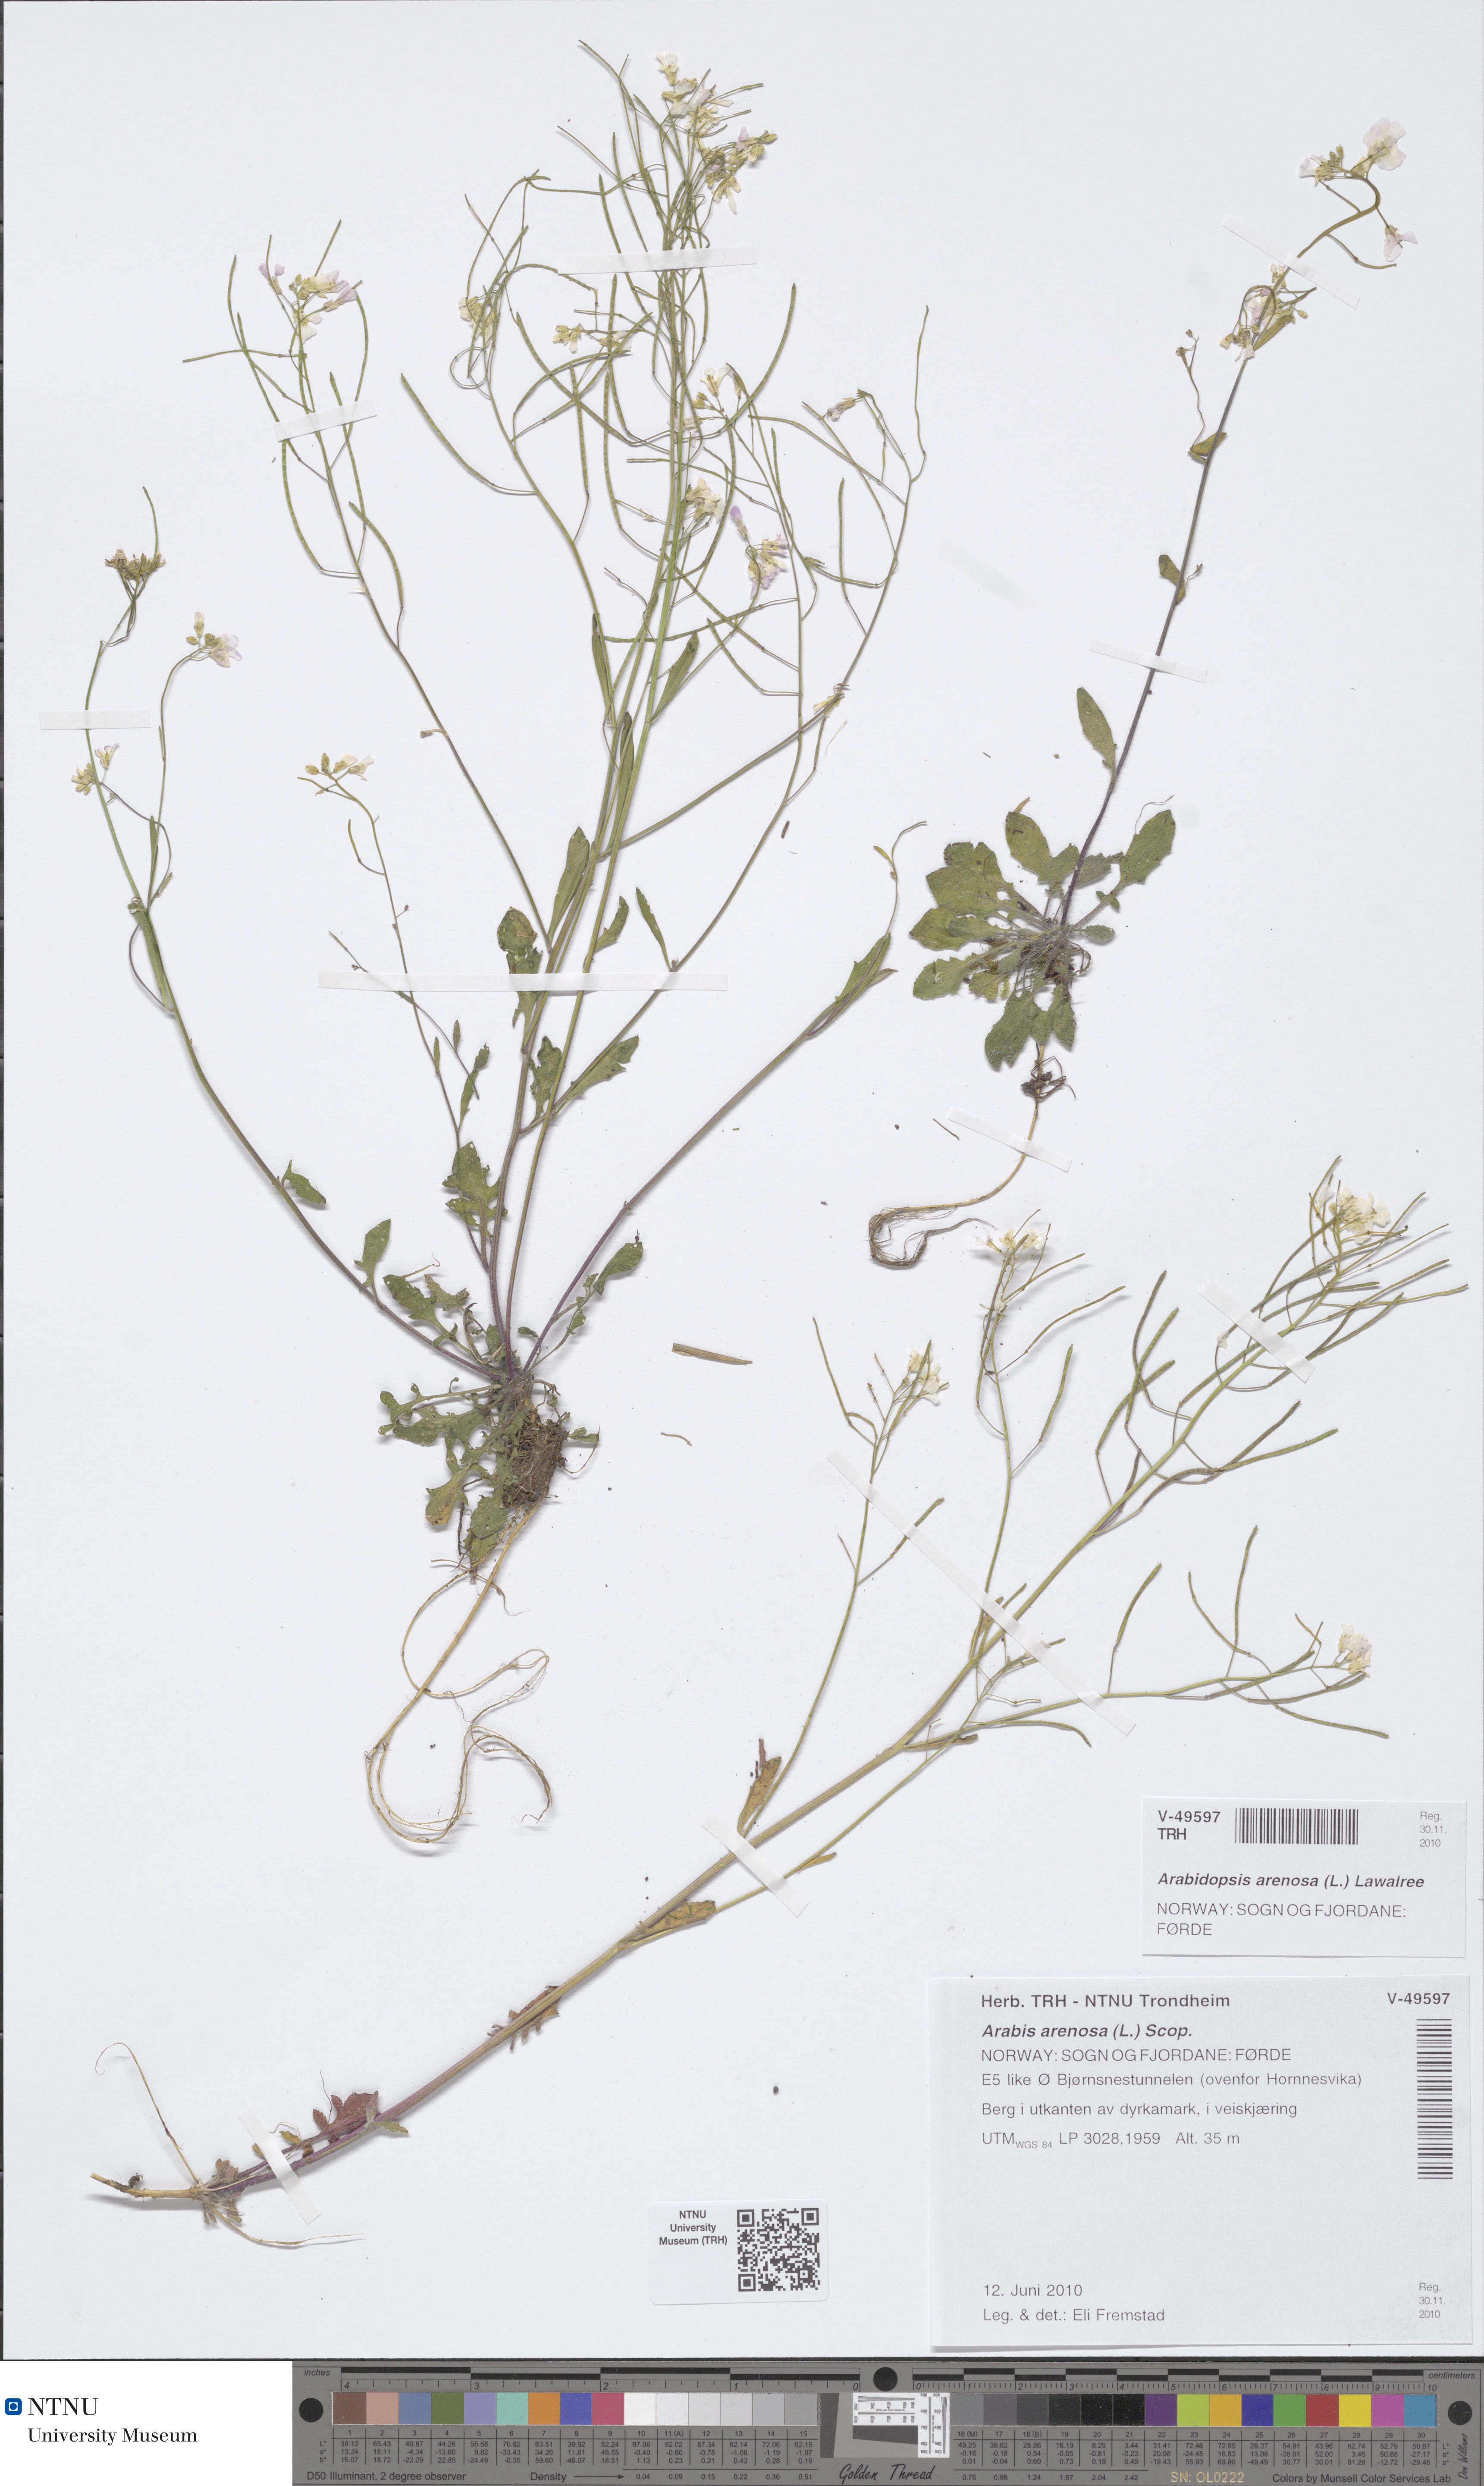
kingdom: Plantae
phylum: Tracheophyta
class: Magnoliopsida
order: Brassicales
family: Brassicaceae
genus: Arabidopsis
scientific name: Arabidopsis arenosa
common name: Sand rock-cress
